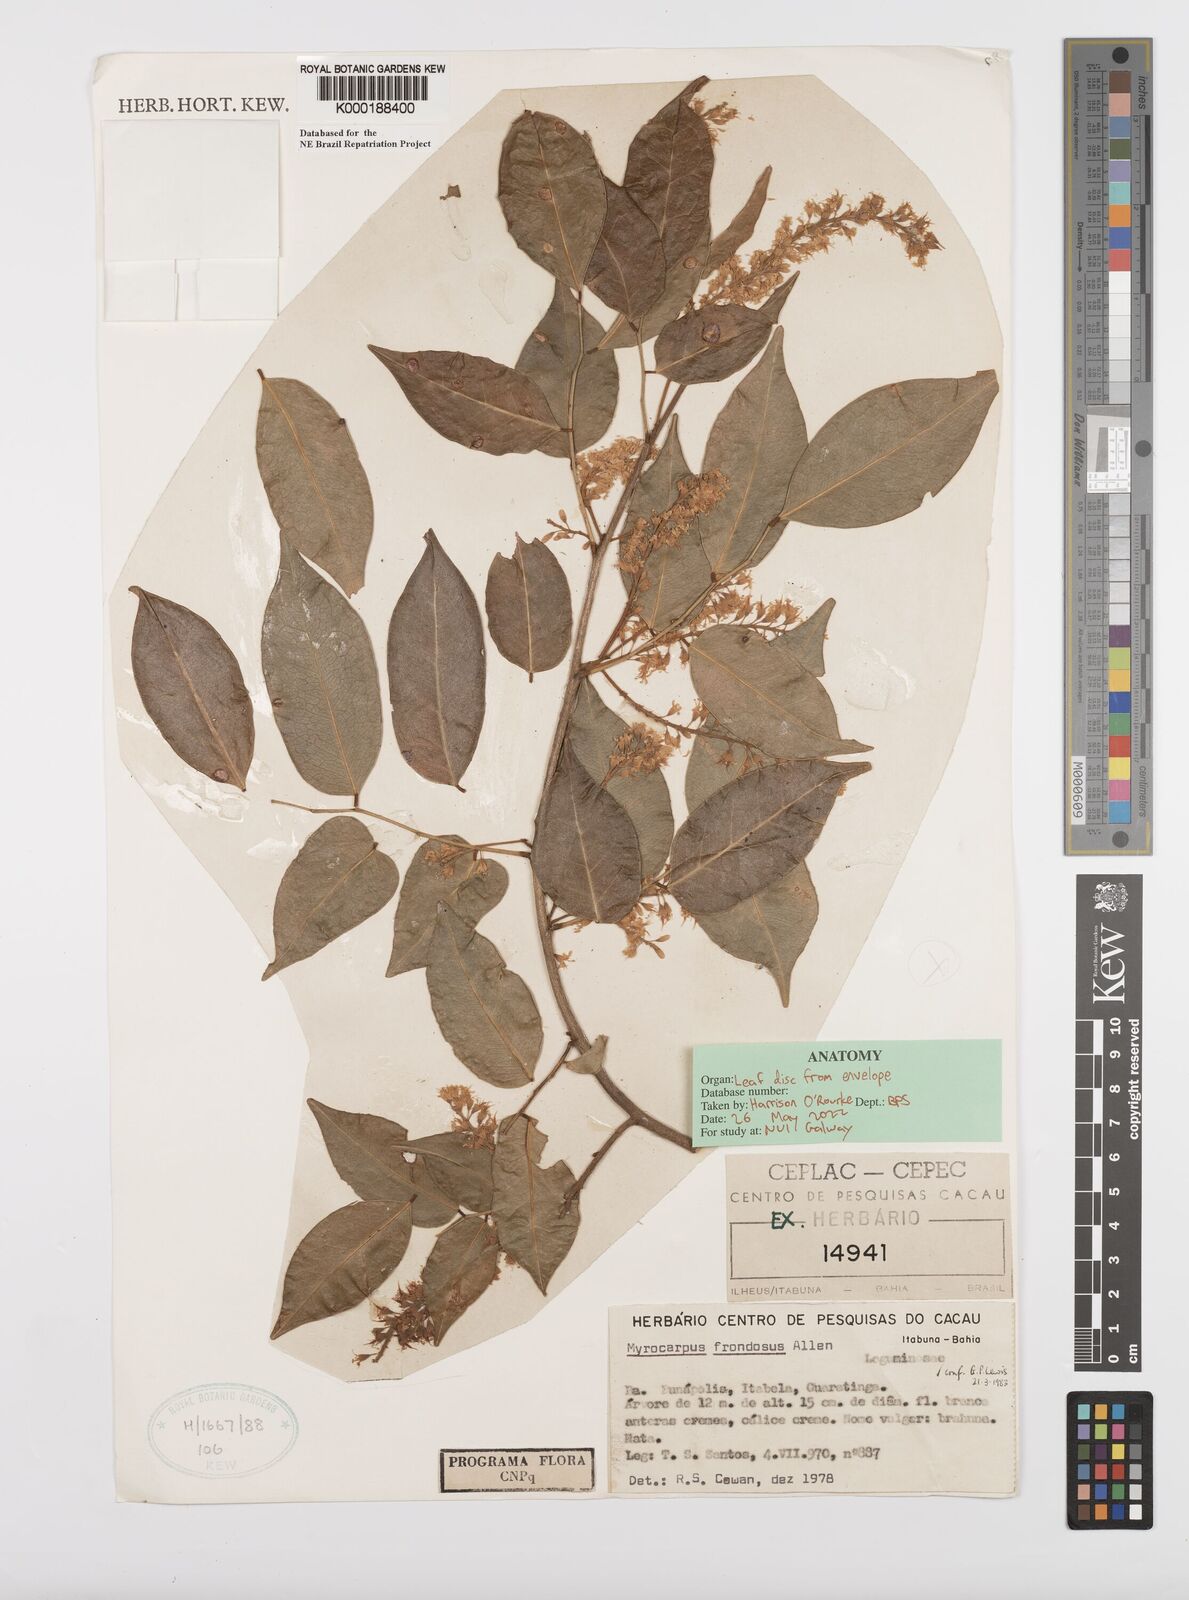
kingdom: Plantae
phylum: Tracheophyta
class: Magnoliopsida
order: Fabales
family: Fabaceae
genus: Myrocarpus
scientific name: Myrocarpus frondosus
